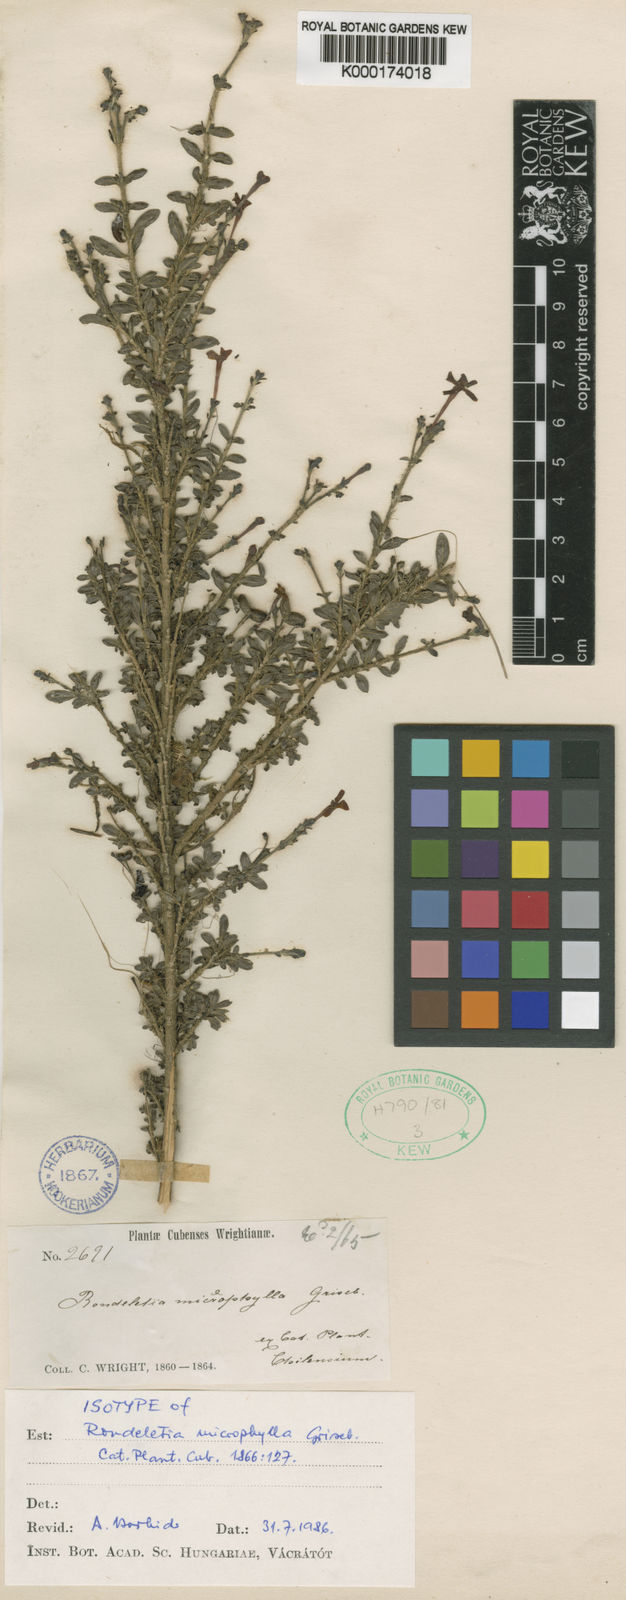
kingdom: Plantae
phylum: Tracheophyta
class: Magnoliopsida
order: Gentianales
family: Rubiaceae
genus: Rondeletia
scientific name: Rondeletia microphylla
